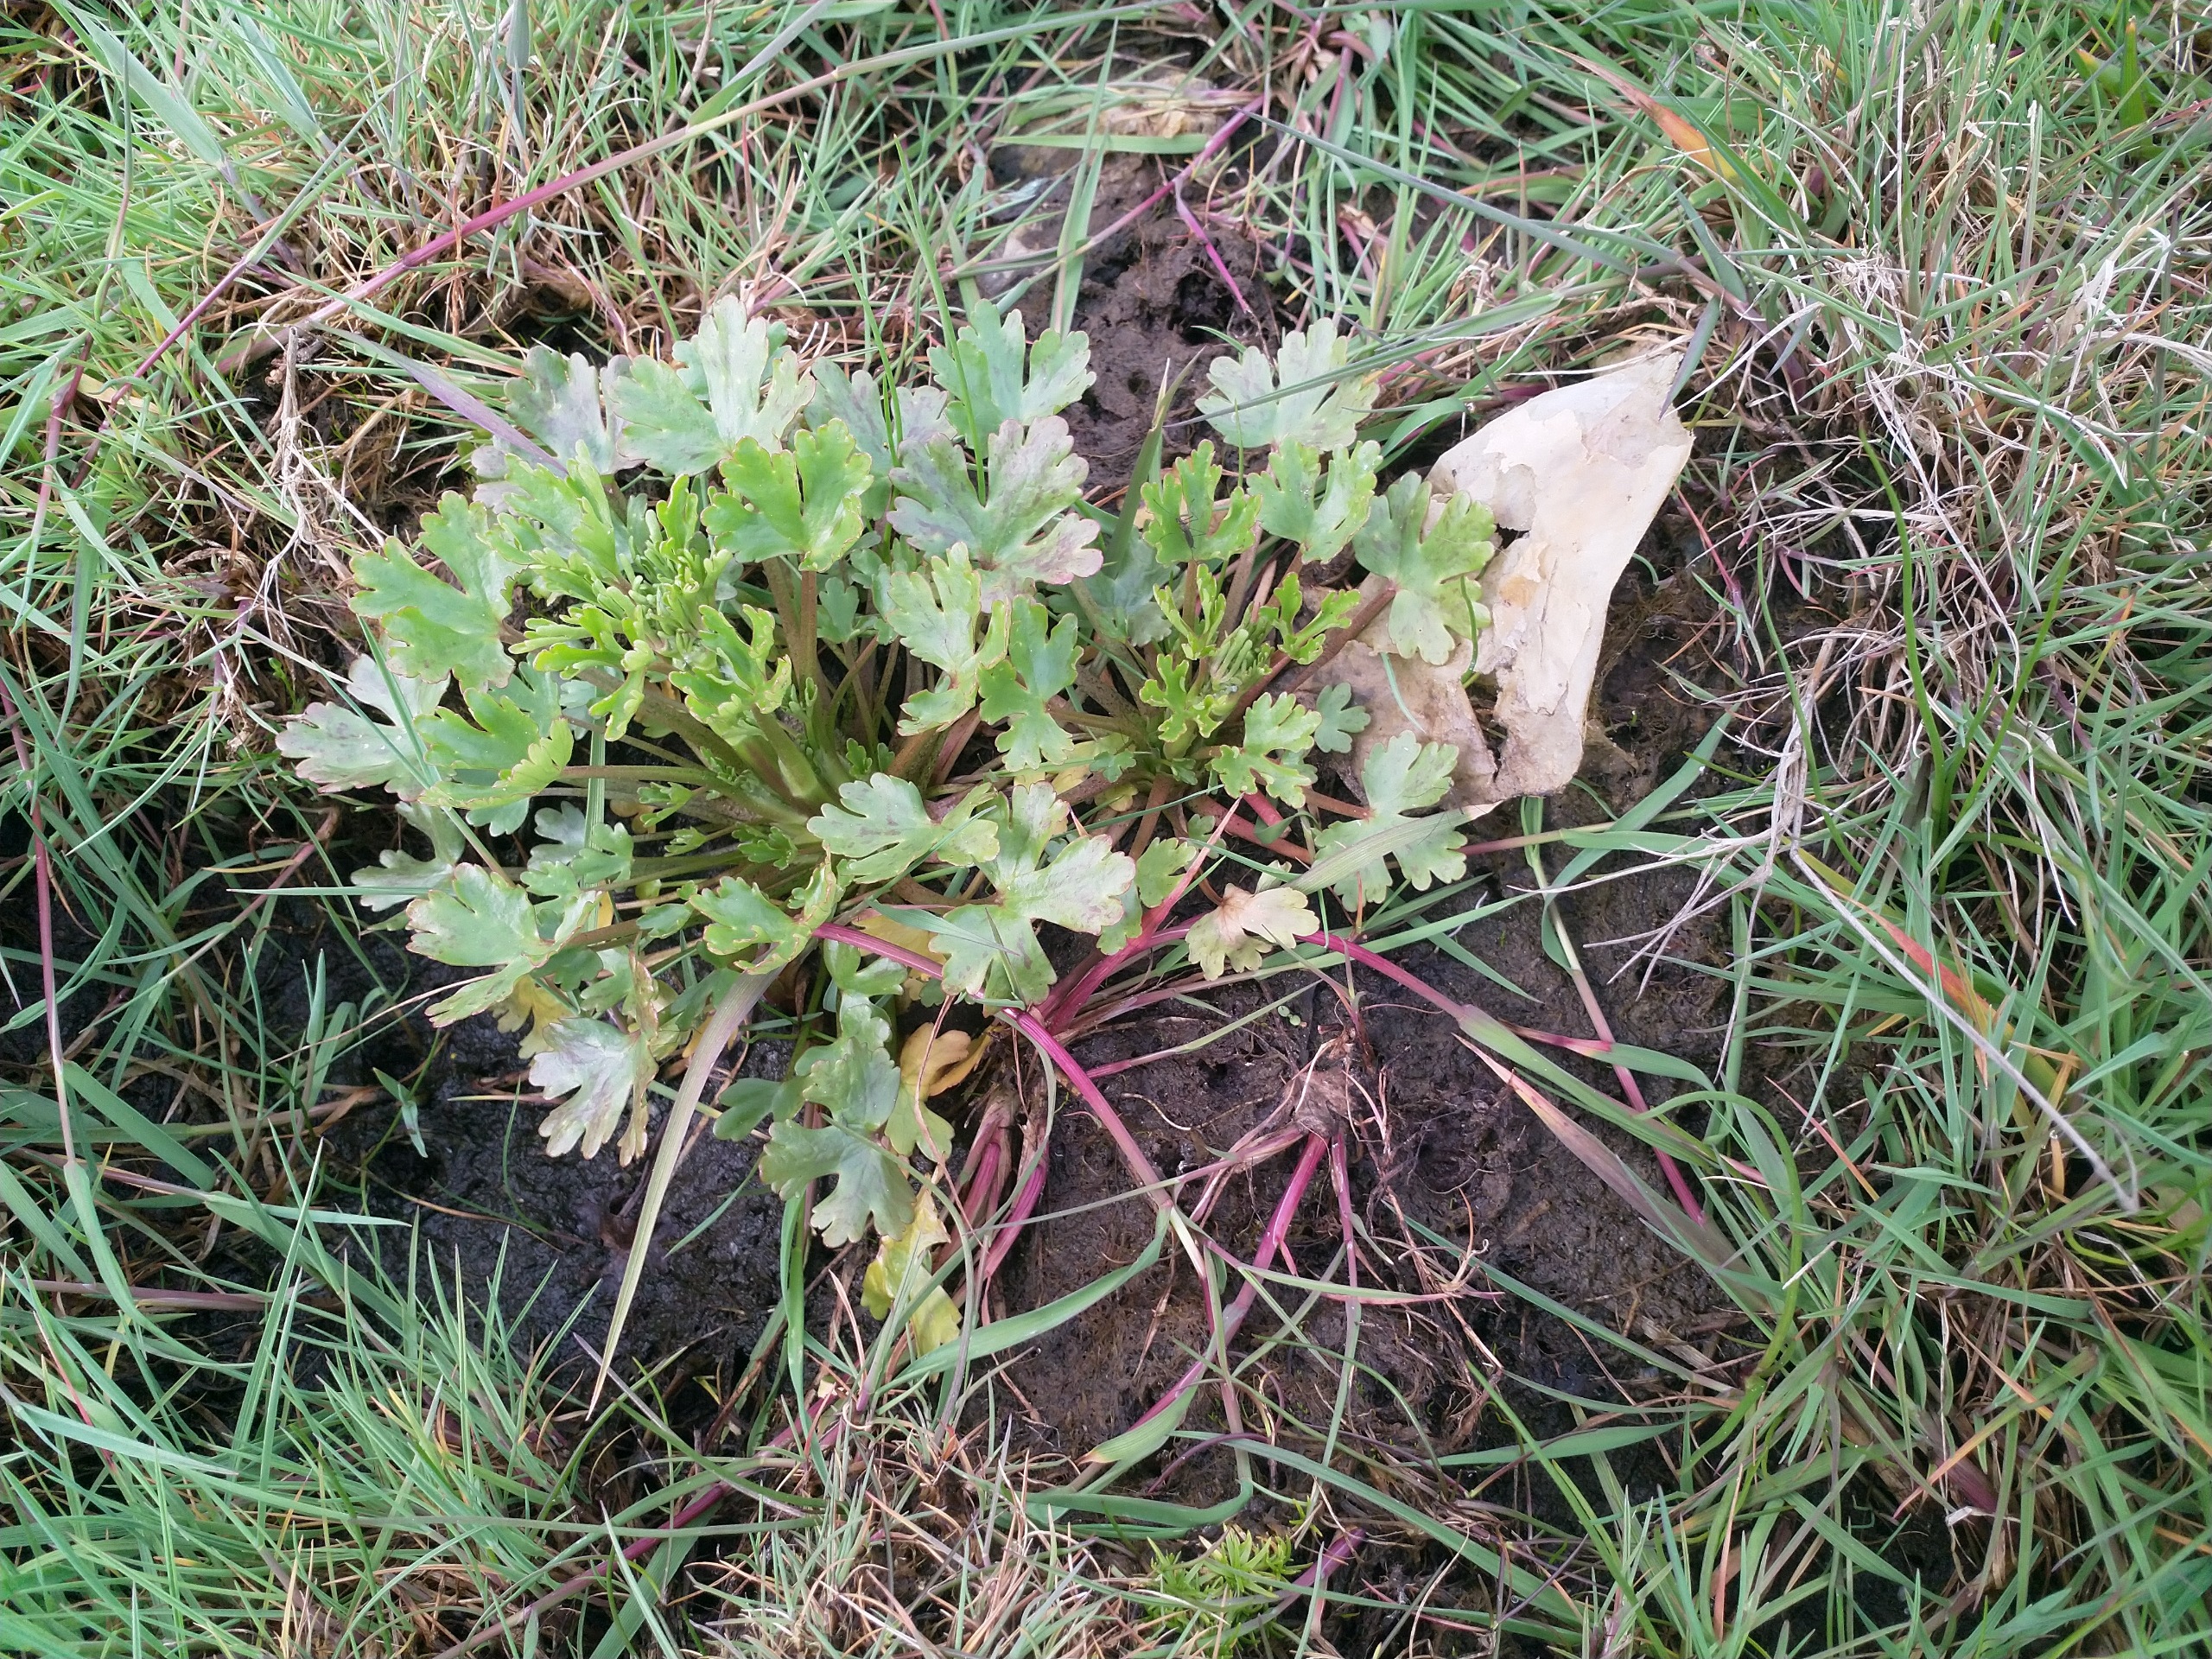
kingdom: Plantae
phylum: Tracheophyta
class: Magnoliopsida
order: Ranunculales
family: Ranunculaceae
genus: Ranunculus
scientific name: Ranunculus sceleratus
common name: Tigger-ranunkel
